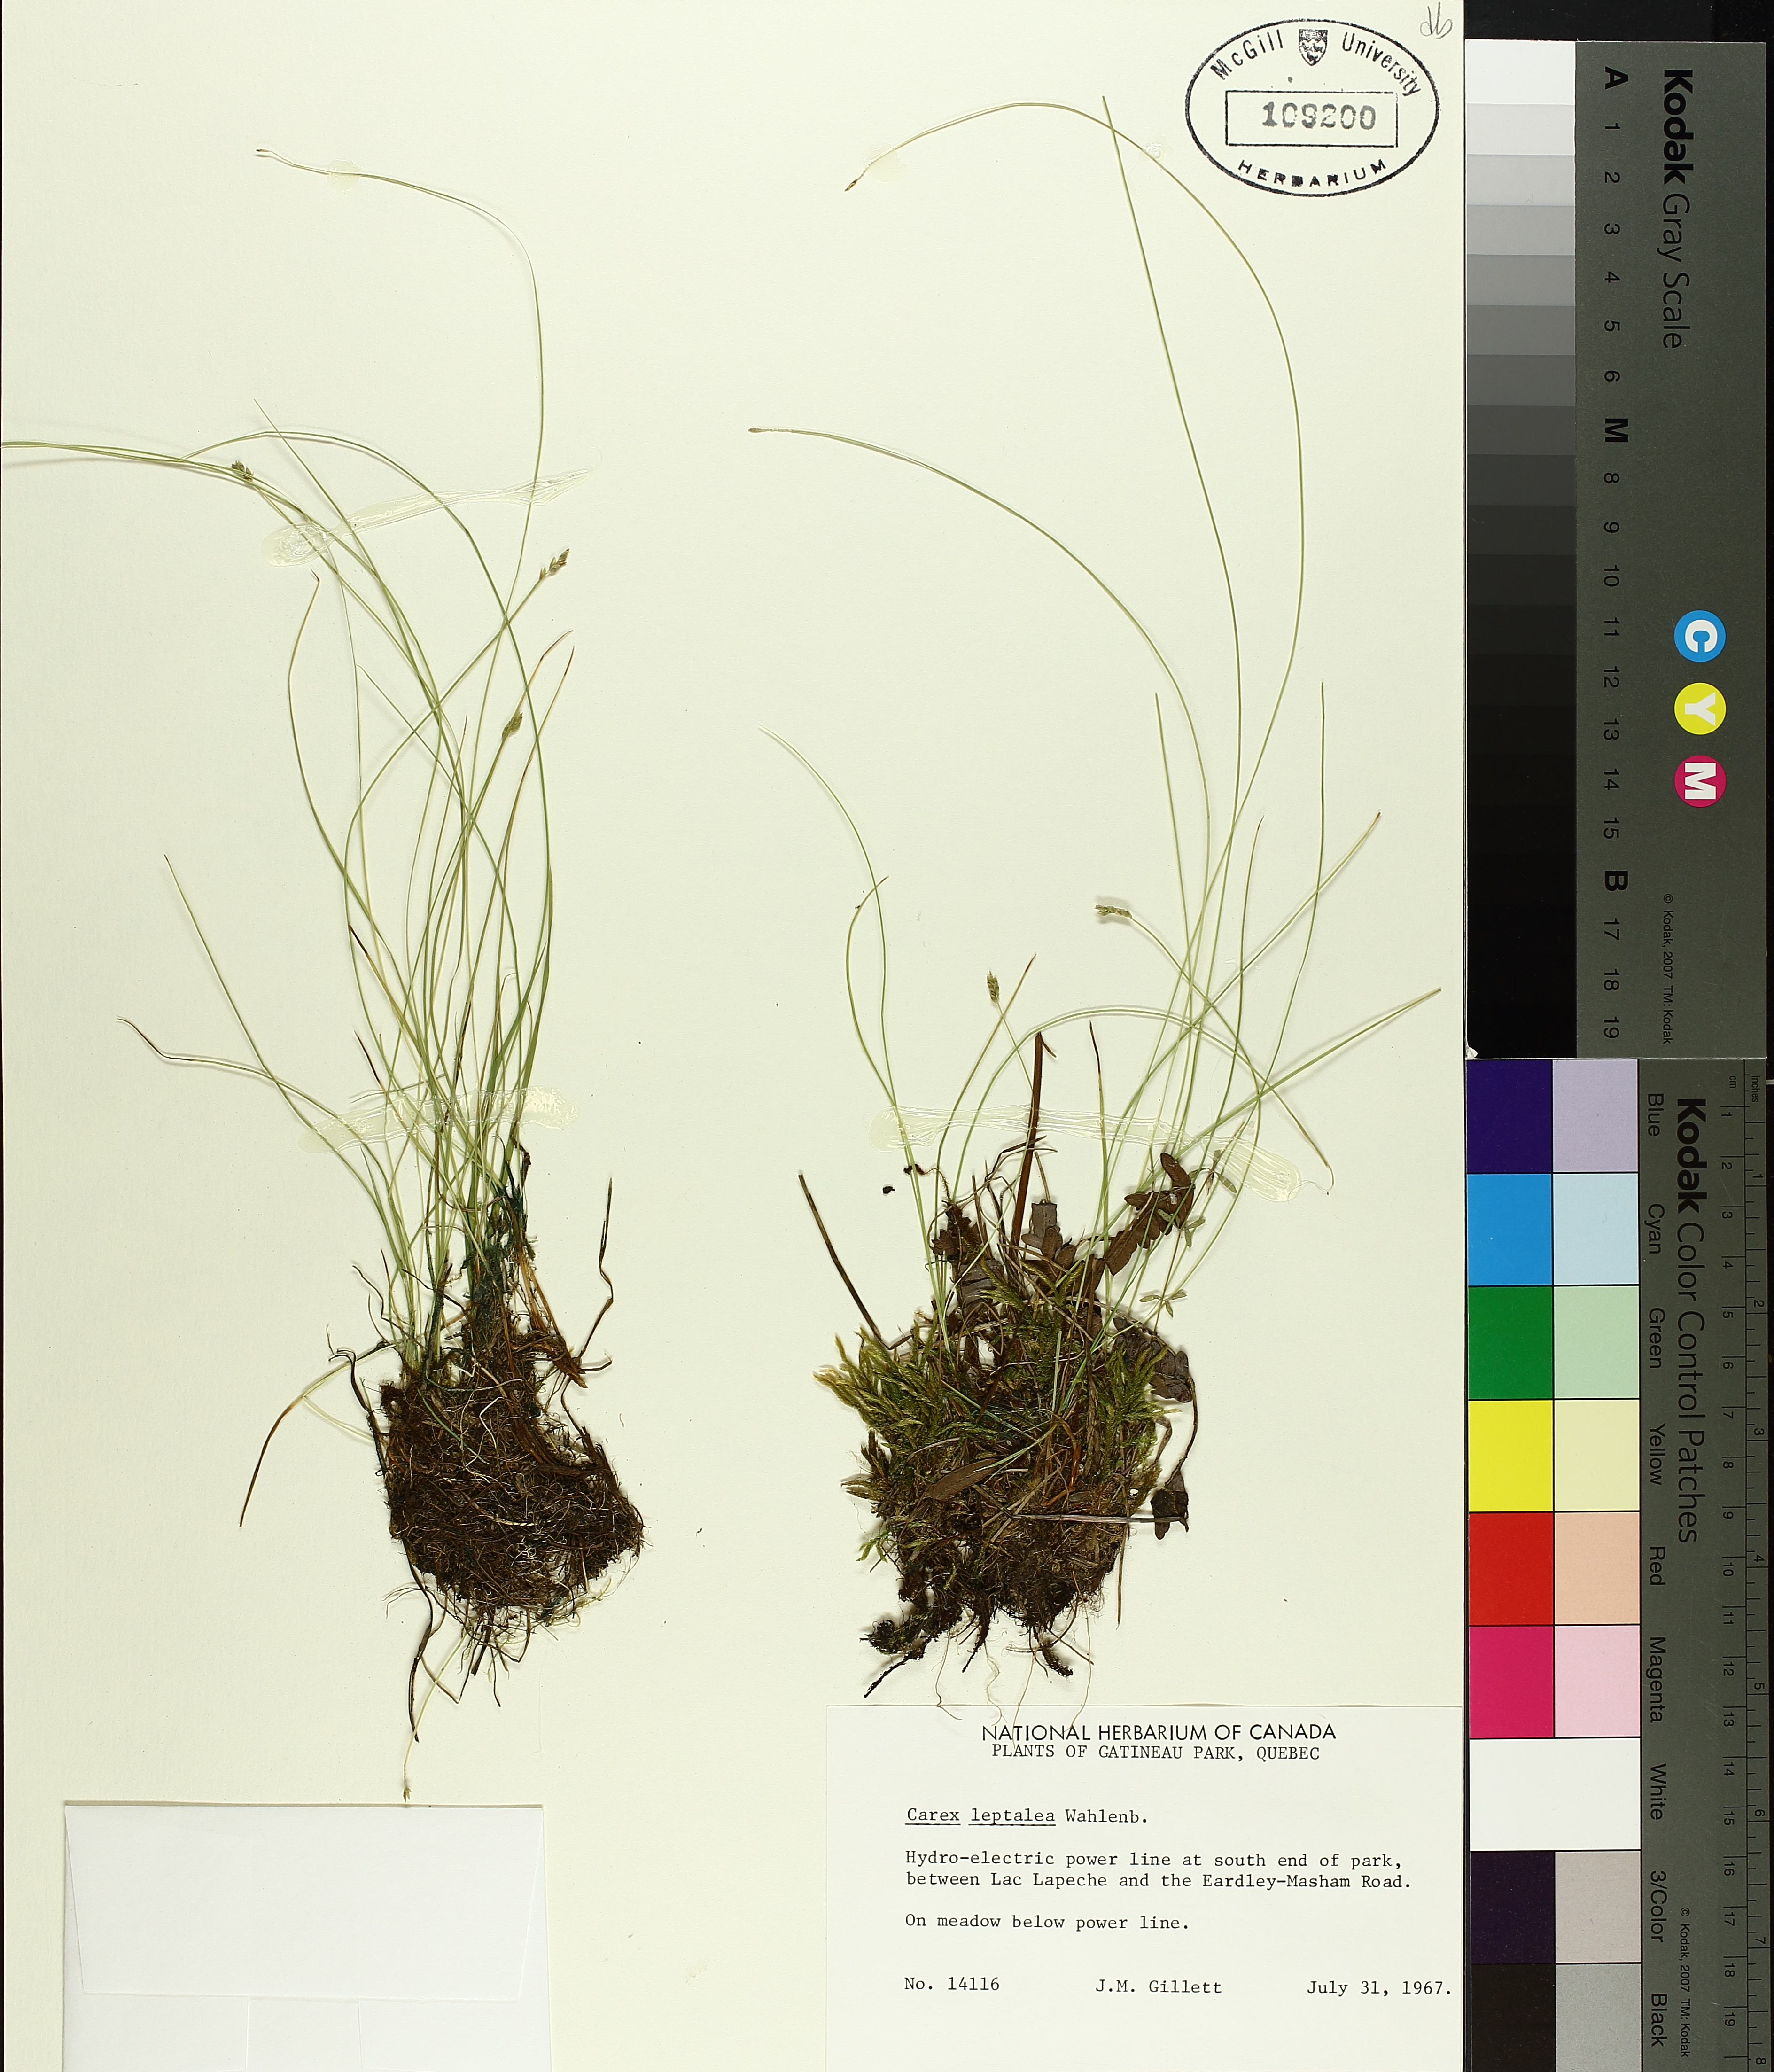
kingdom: Plantae
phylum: Tracheophyta
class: Liliopsida
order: Poales
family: Cyperaceae
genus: Carex
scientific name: Carex leptalea
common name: Bristly-stalked sedge
